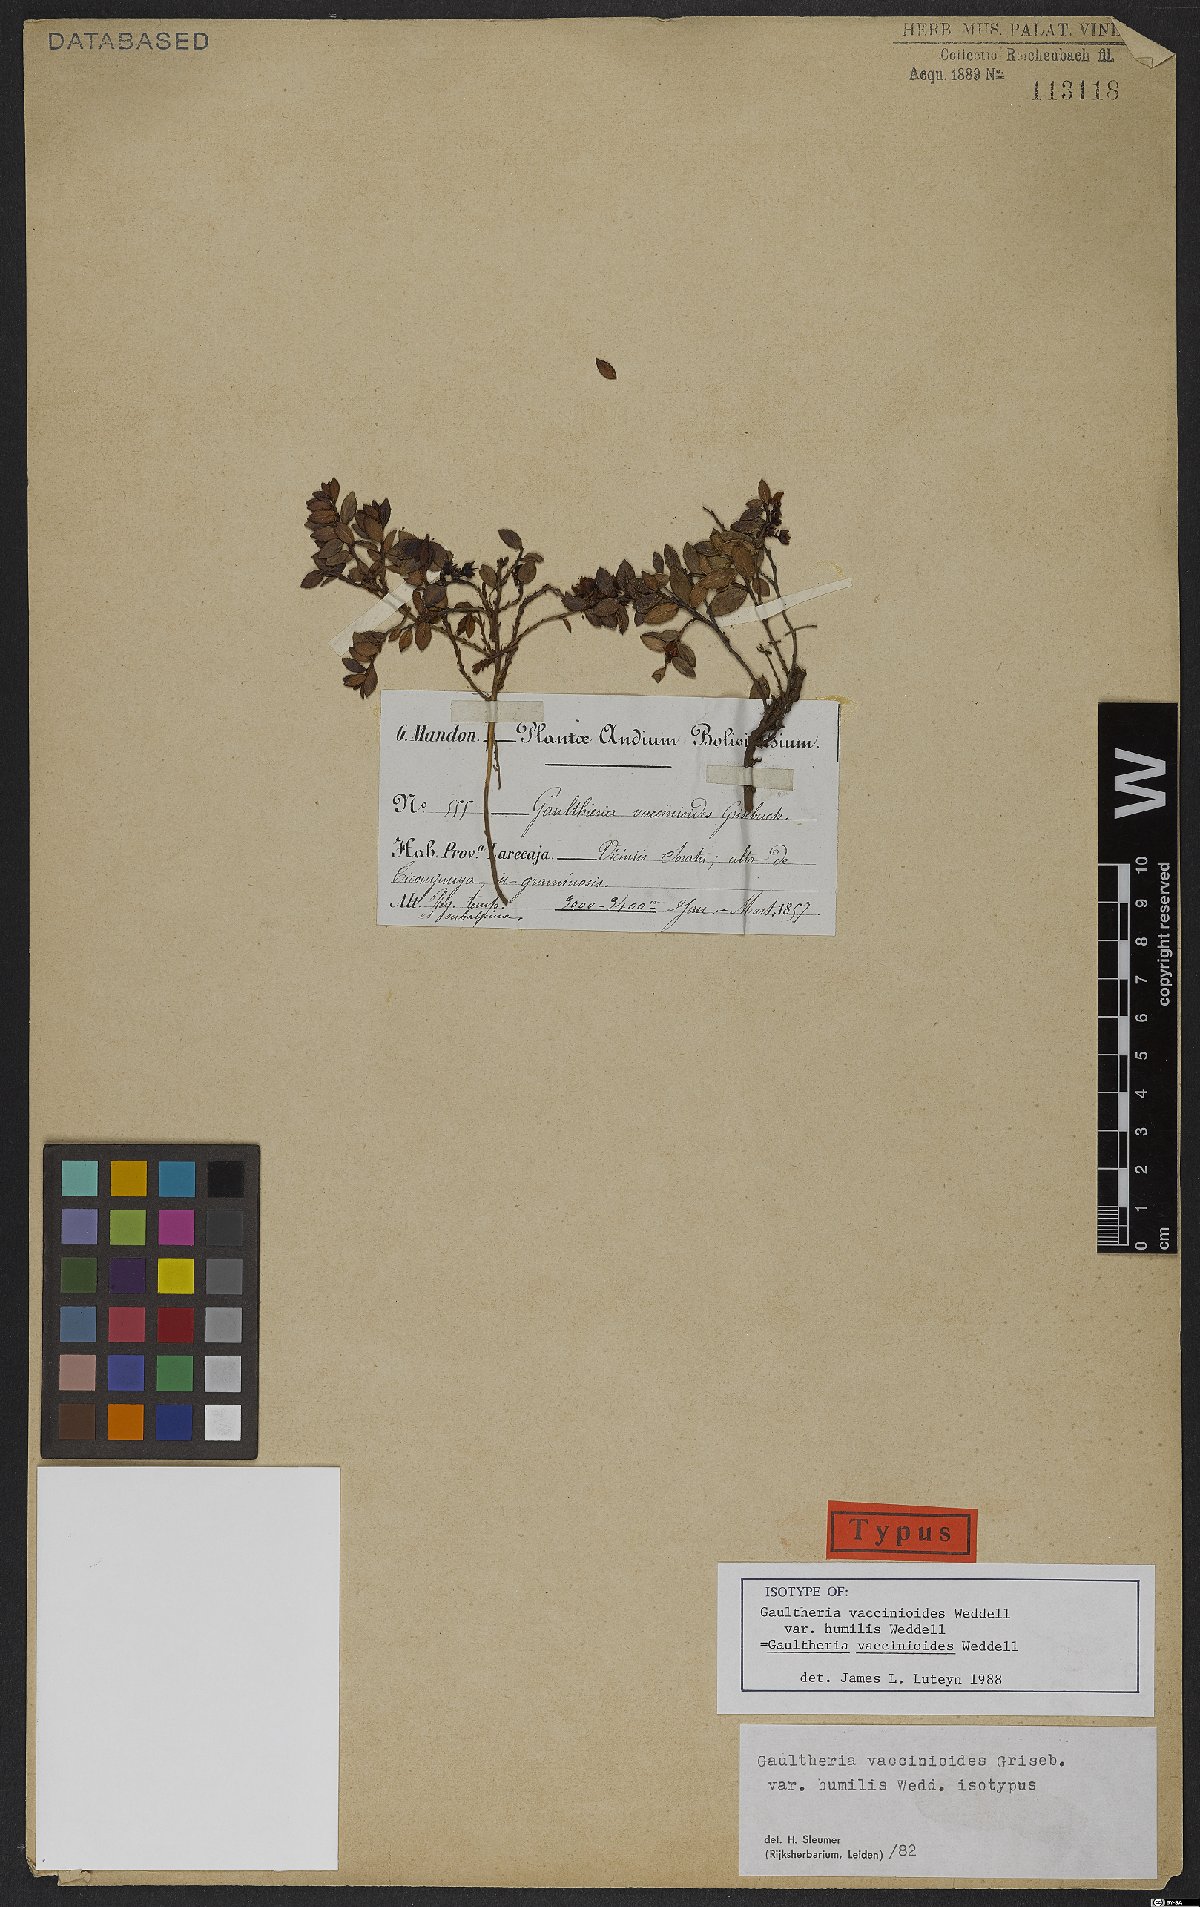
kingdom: Plantae
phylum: Tracheophyta
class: Magnoliopsida
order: Ericales
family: Ericaceae
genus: Gaultheria
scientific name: Gaultheria vaccinioides
